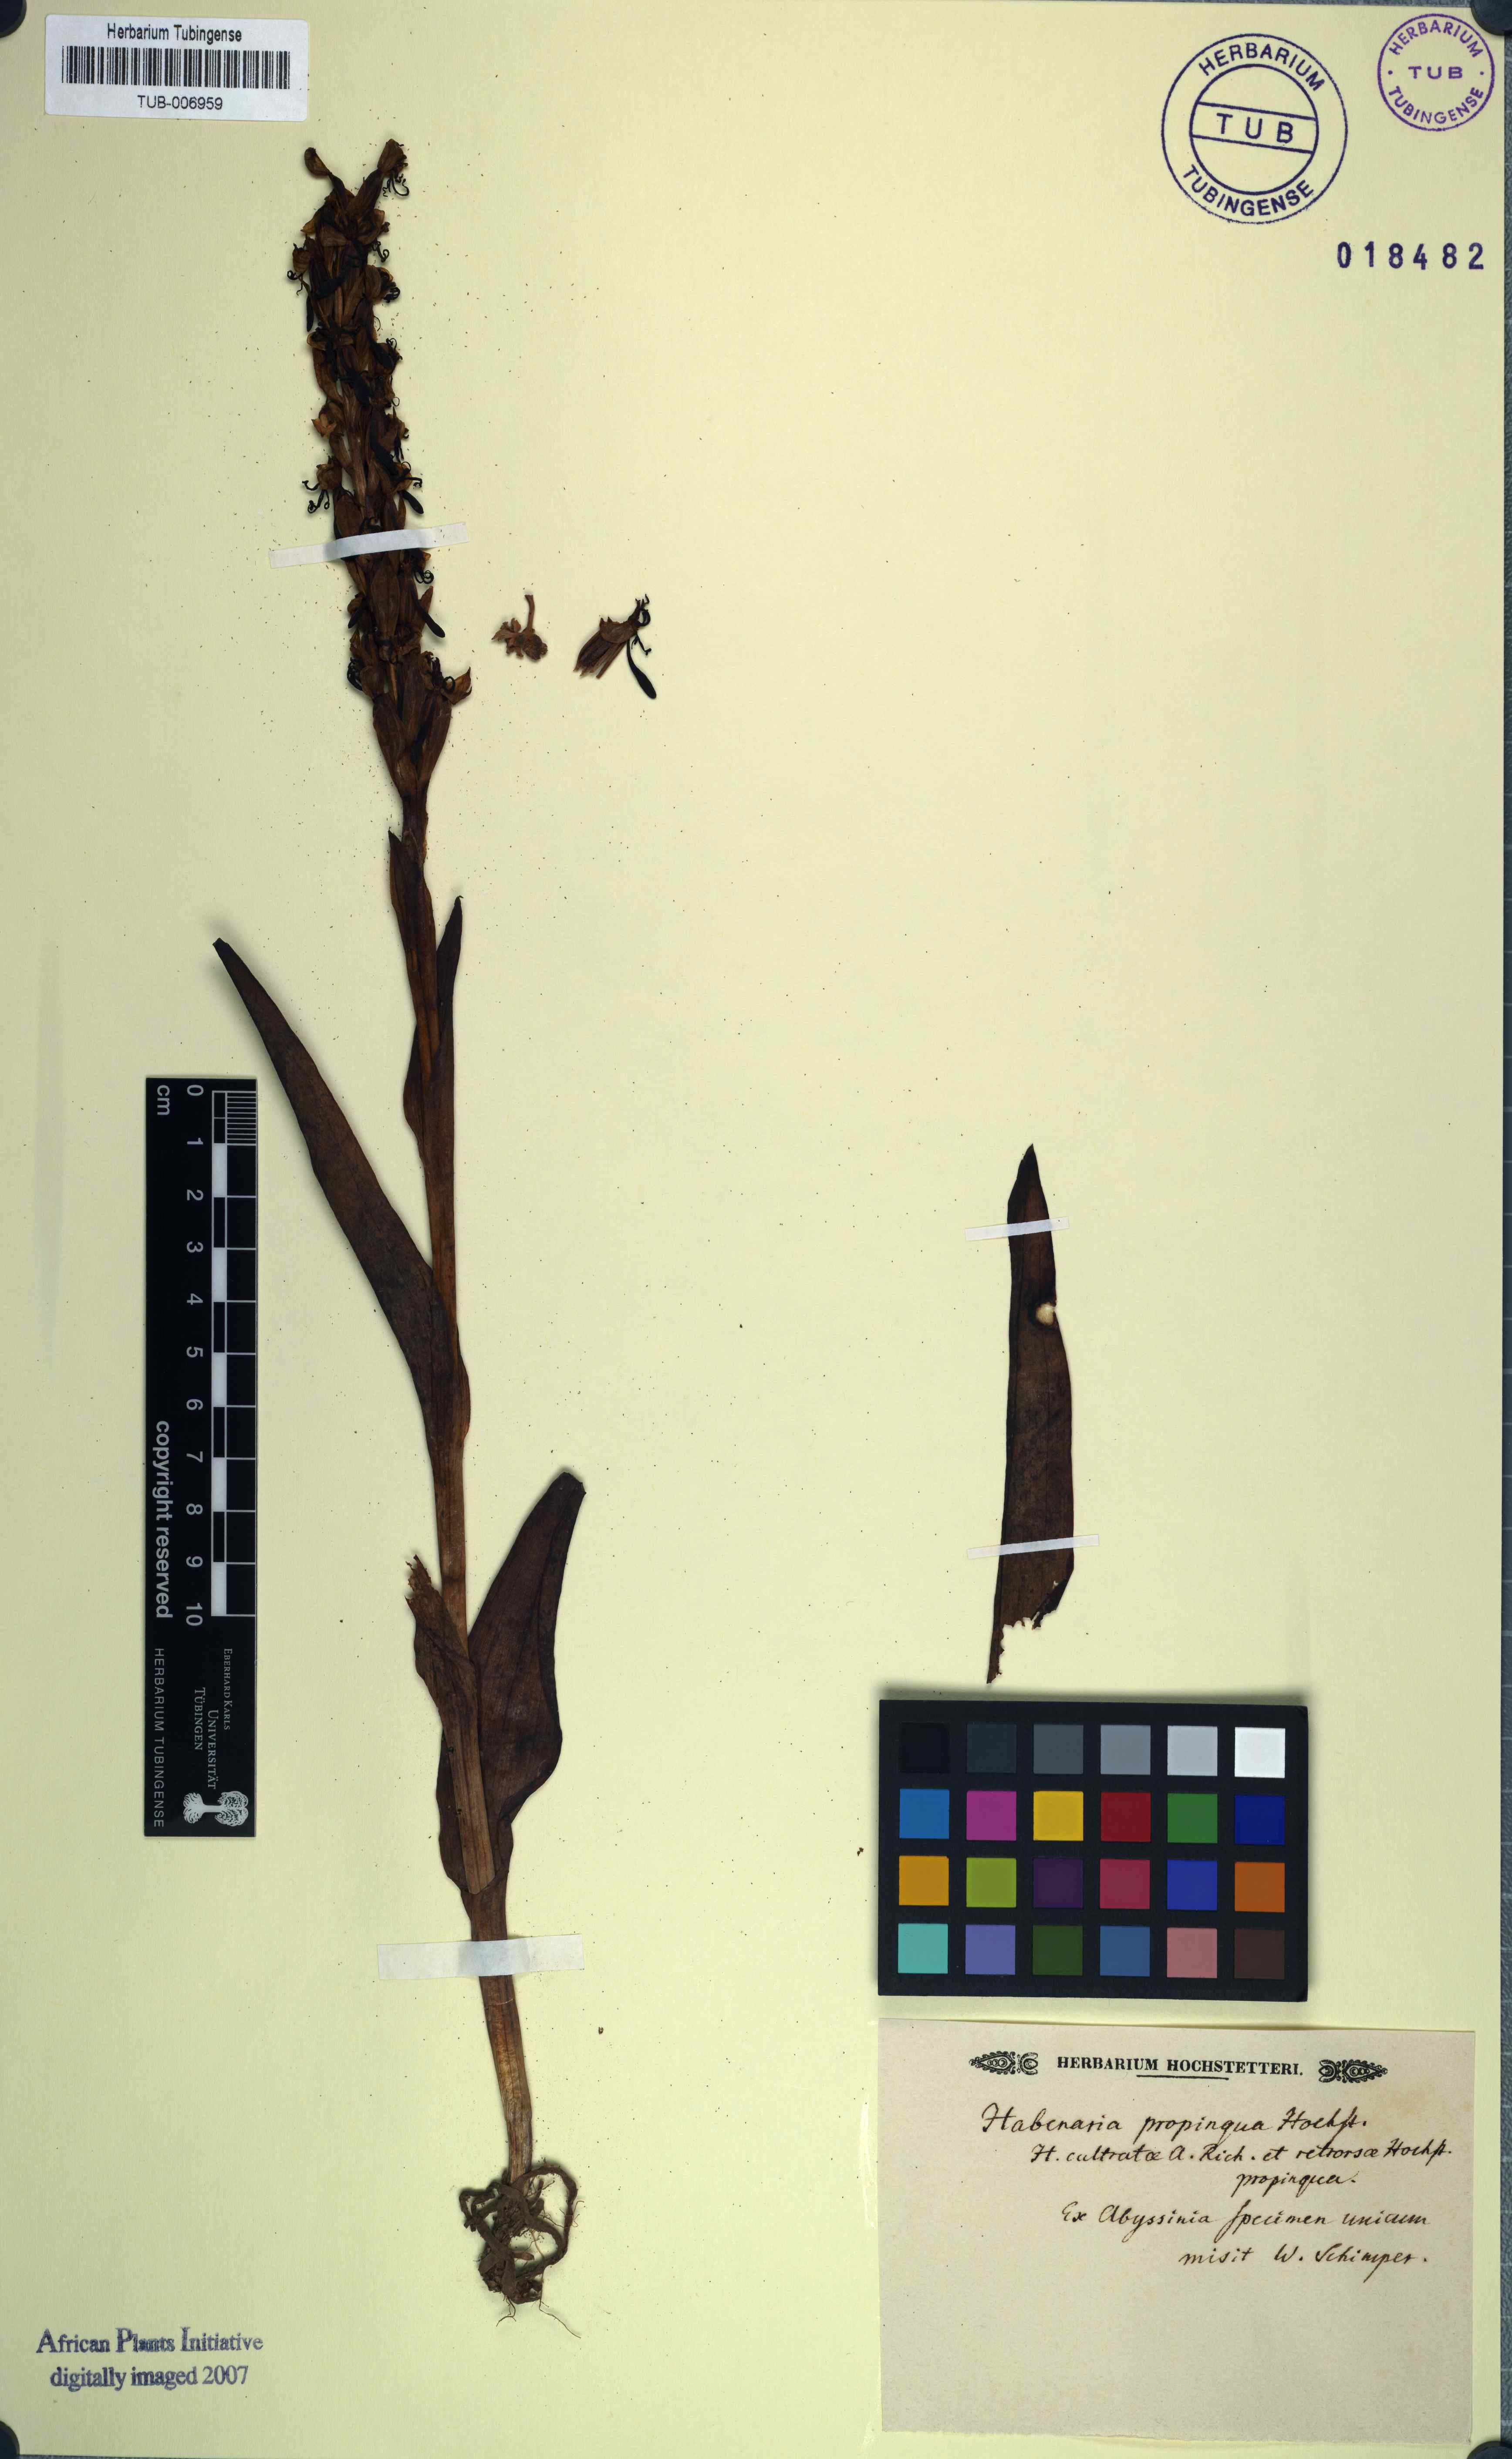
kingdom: Plantae
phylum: Tracheophyta
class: Liliopsida
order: Asparagales
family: Orchidaceae
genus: Habenaria
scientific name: Habenaria
